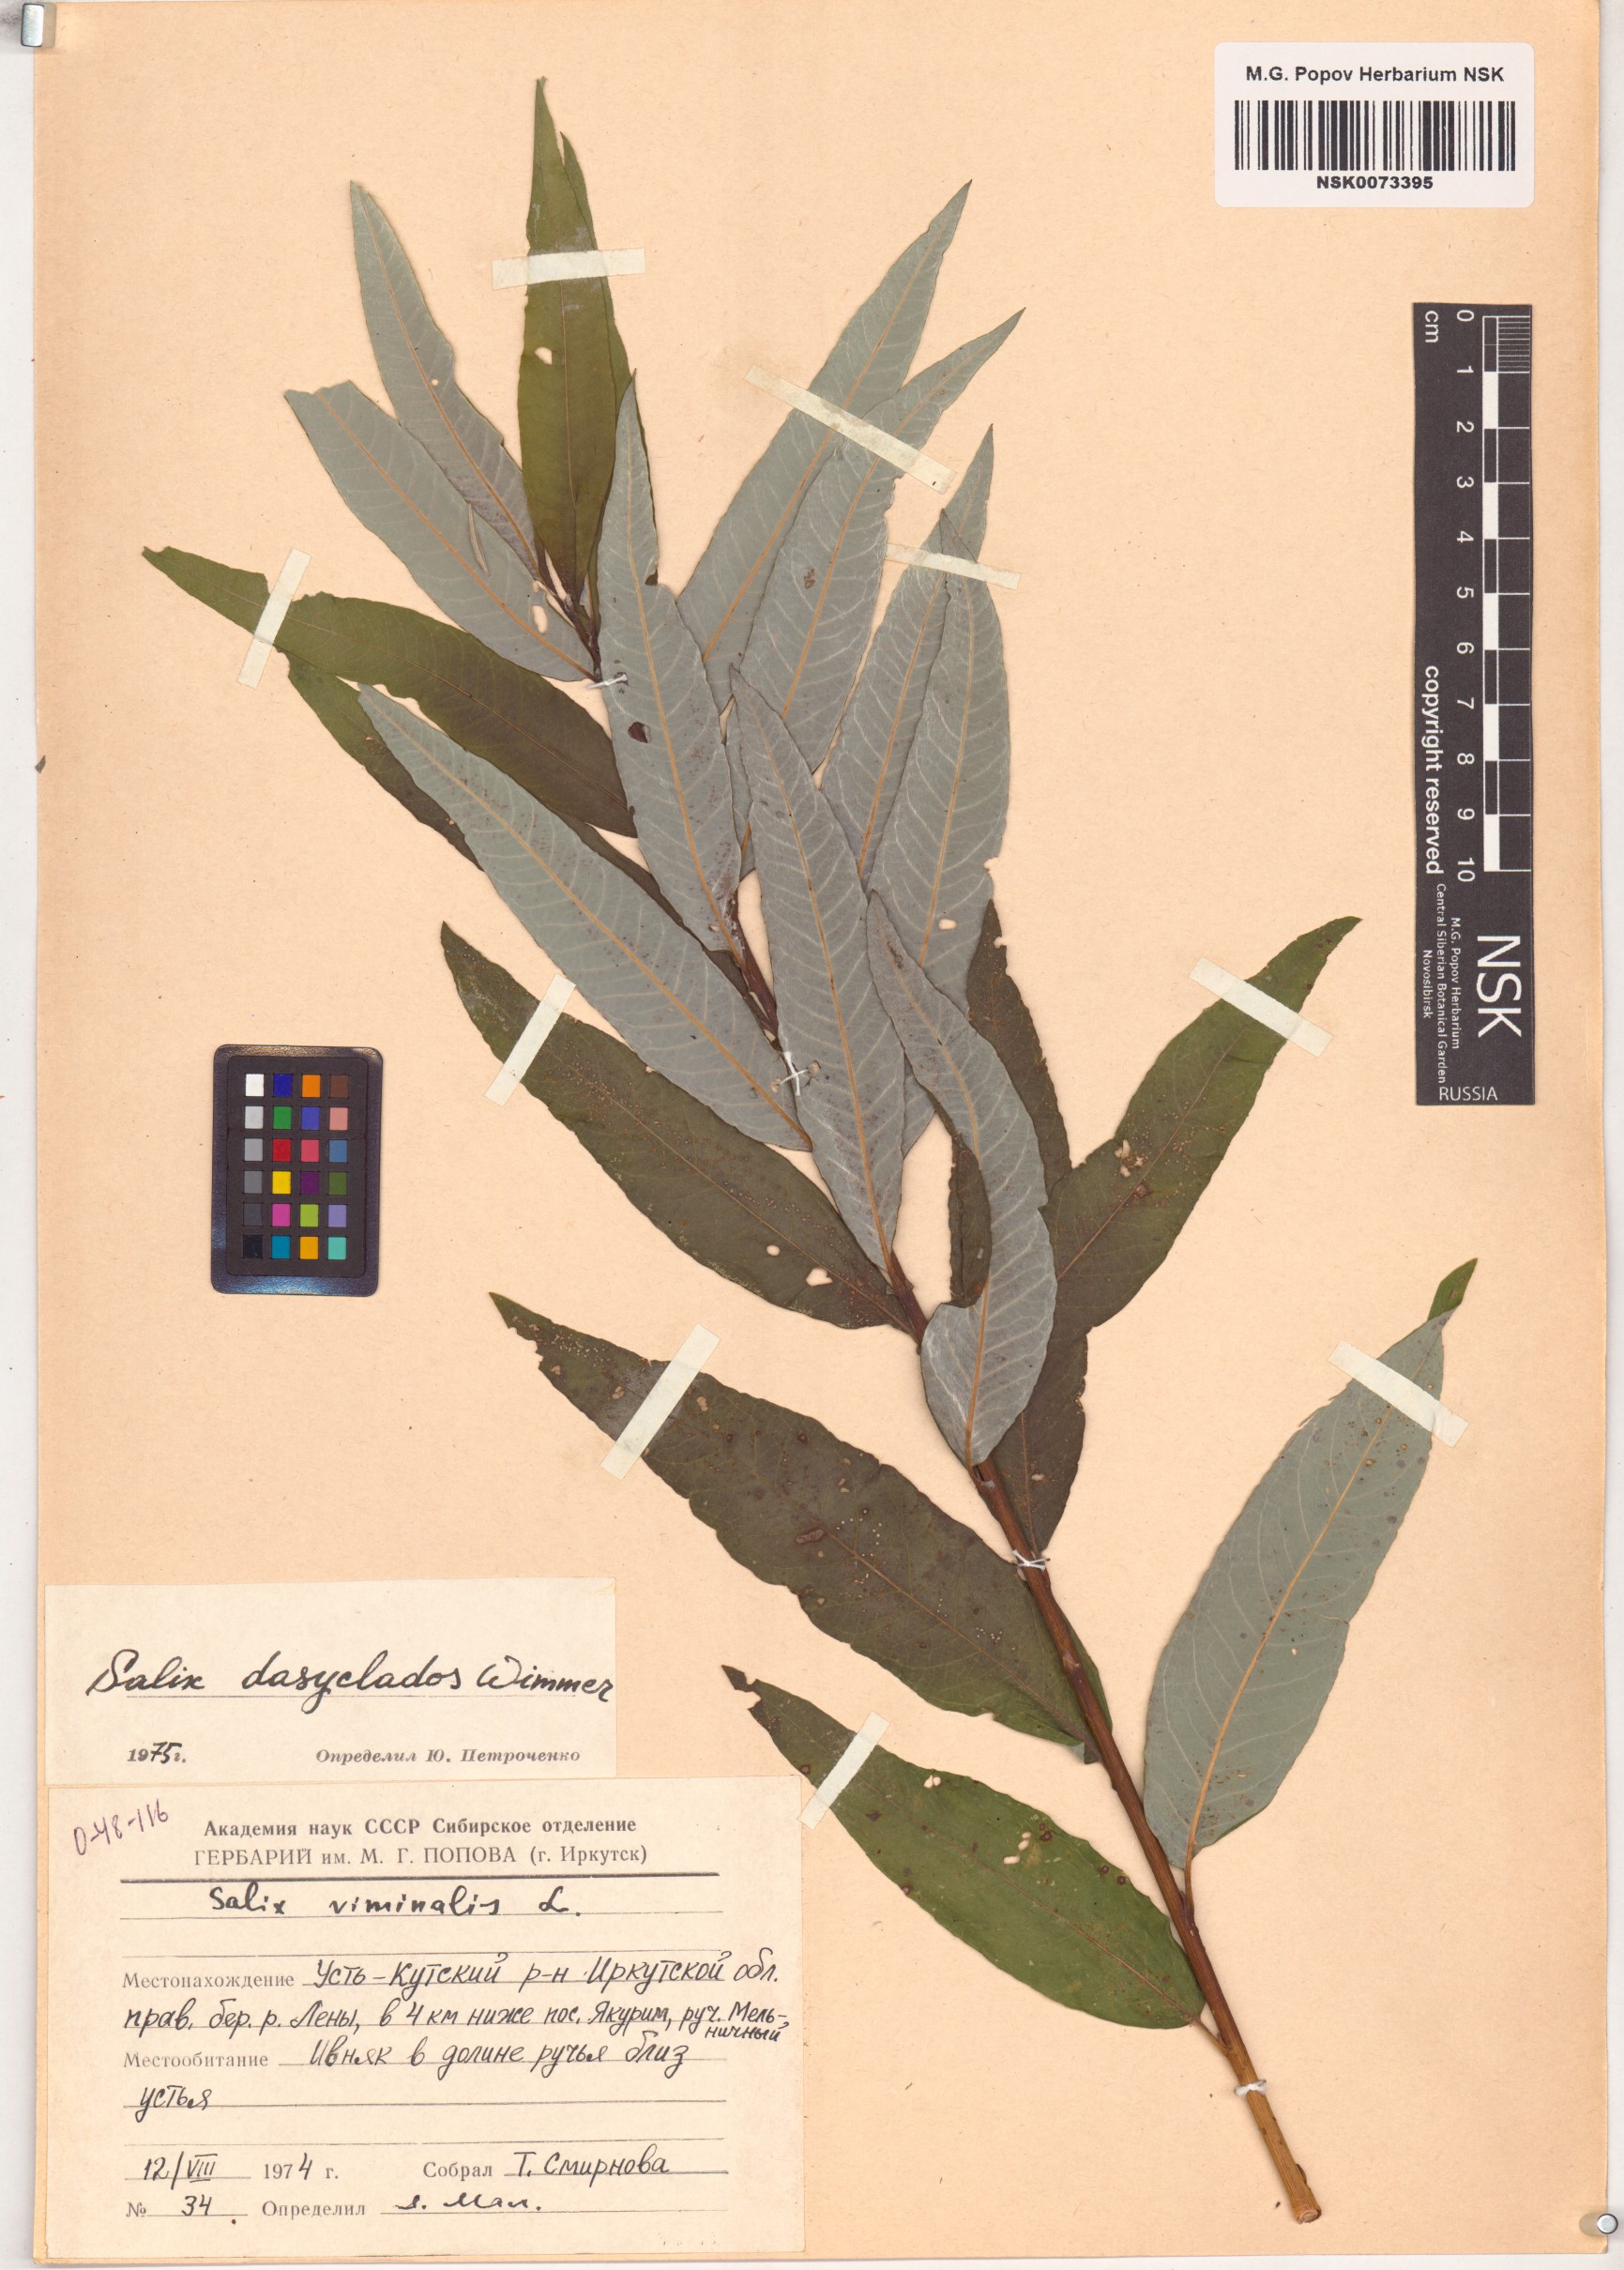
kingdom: Plantae
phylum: Tracheophyta
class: Magnoliopsida
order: Malpighiales
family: Salicaceae
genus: Salix
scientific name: Salix gmelinii
